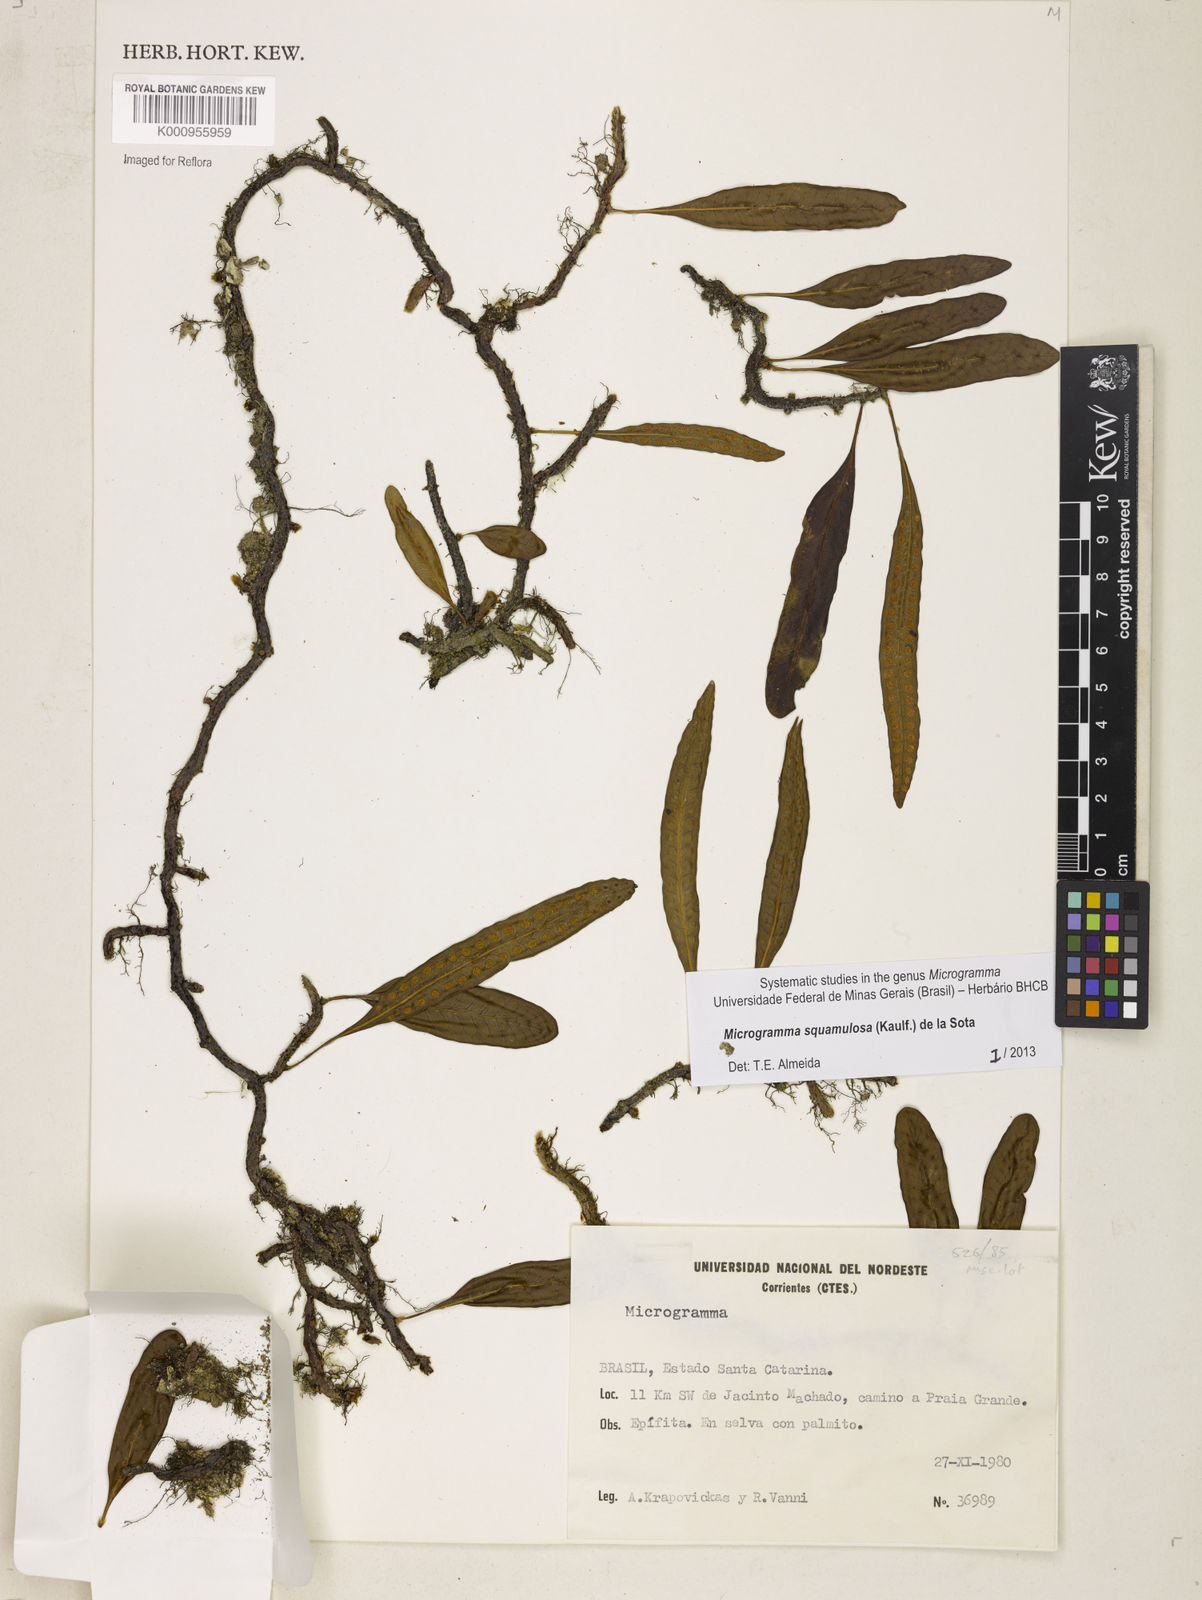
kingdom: Plantae
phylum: Tracheophyta
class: Polypodiopsida
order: Polypodiales
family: Polypodiaceae
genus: Microgramma
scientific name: Microgramma squamulosa
